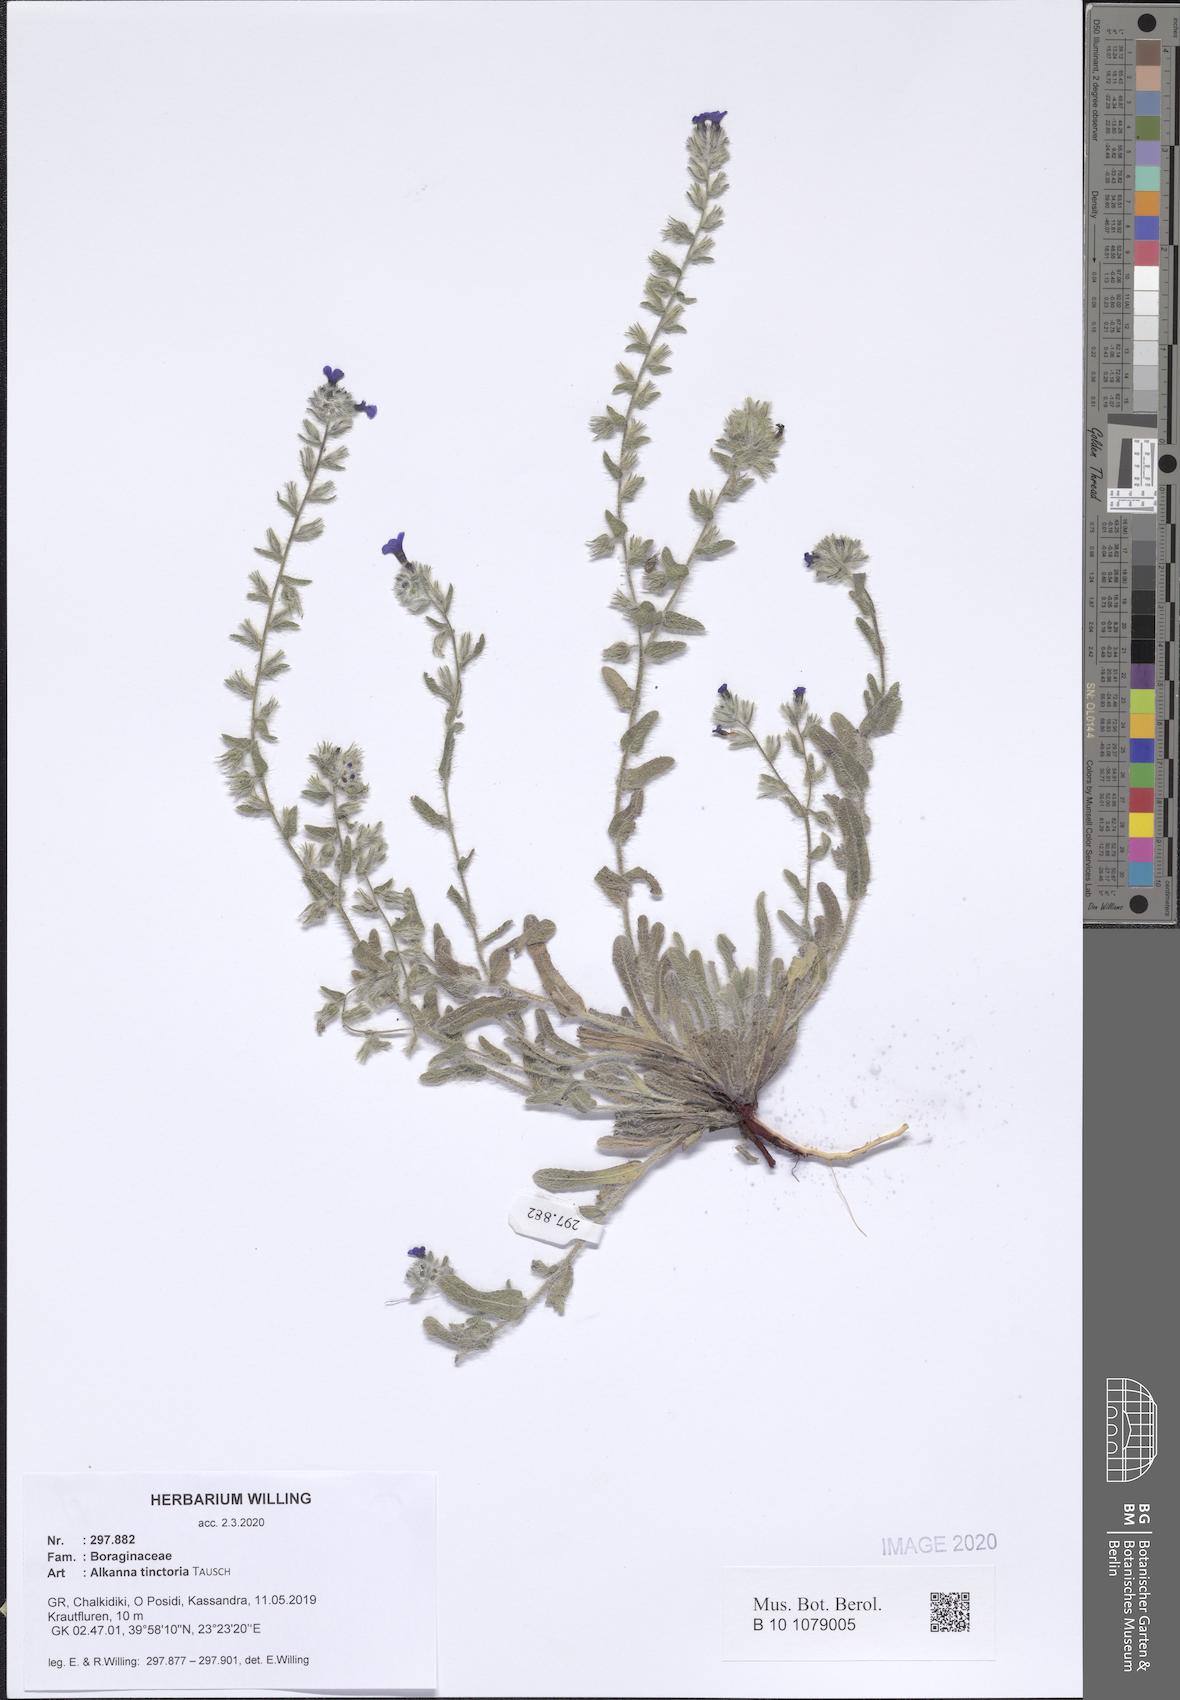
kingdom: Plantae
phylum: Tracheophyta
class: Magnoliopsida
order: Boraginales
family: Boraginaceae
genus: Alkanna
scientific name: Alkanna tinctoria
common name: Dyer's-alkanet
